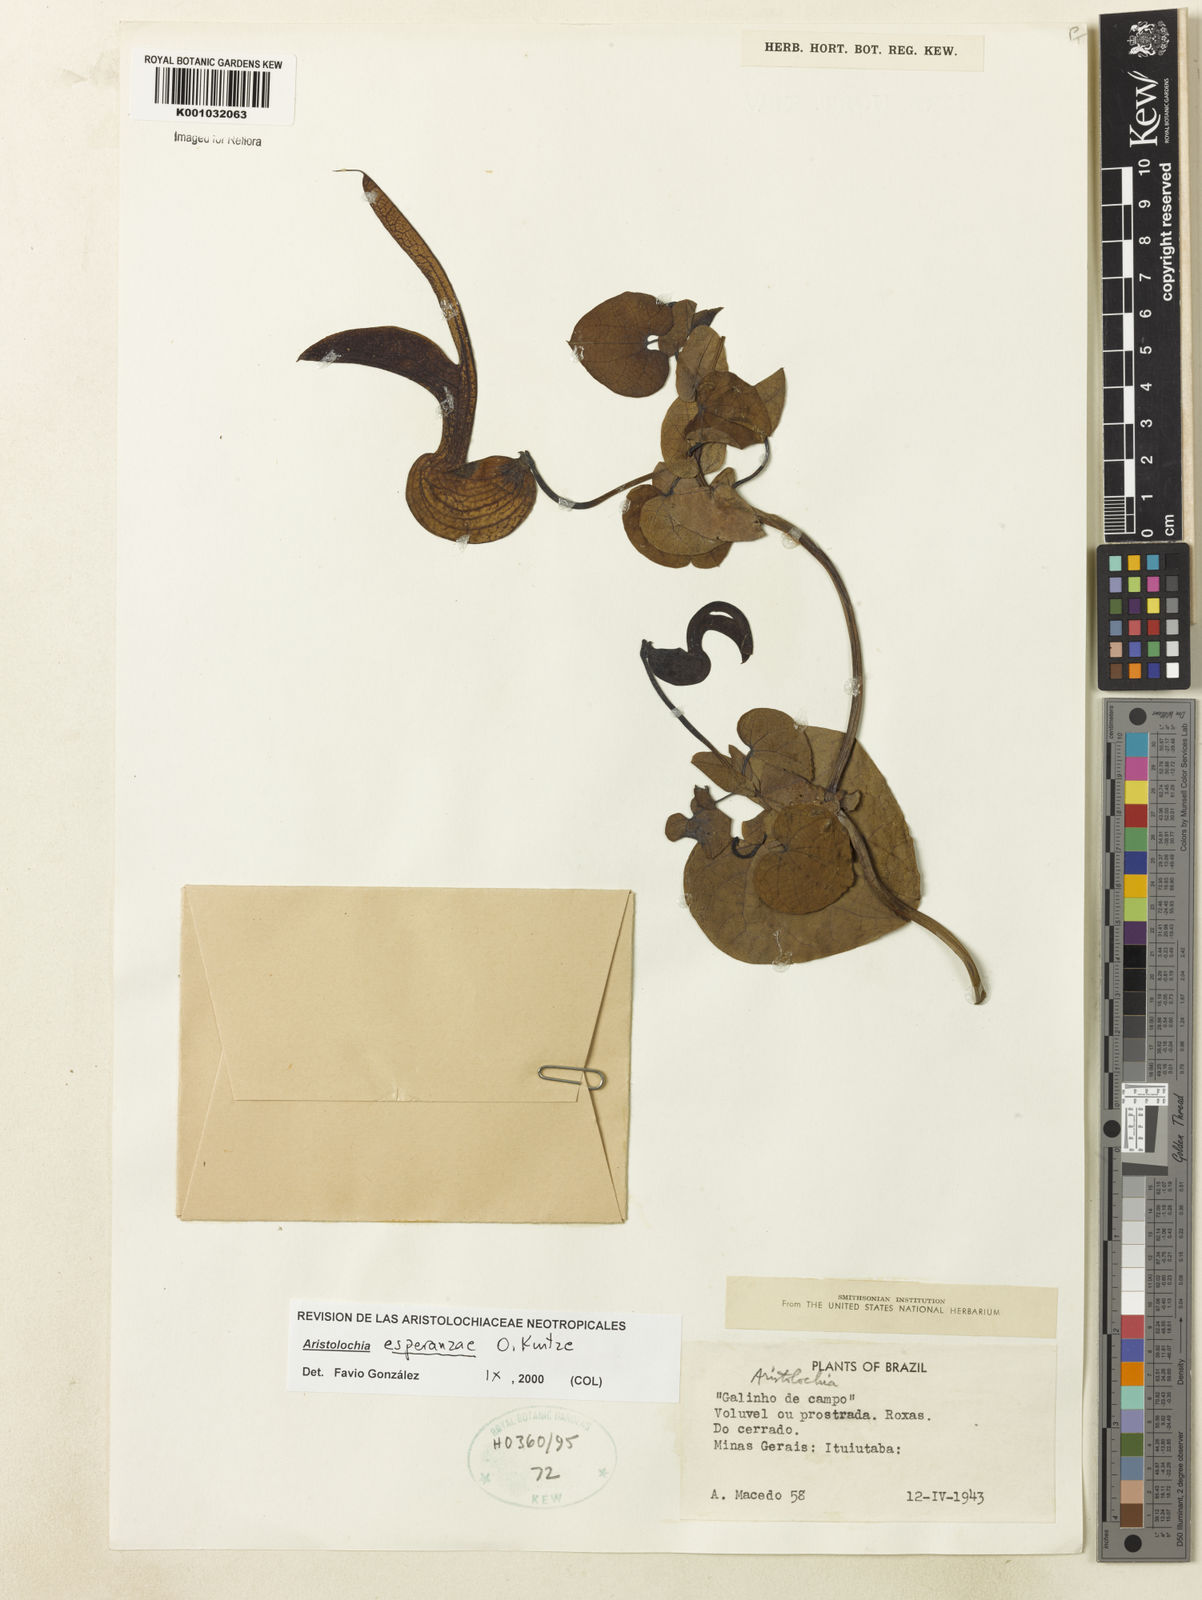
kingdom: Plantae
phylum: Tracheophyta
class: Magnoliopsida
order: Piperales
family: Aristolochiaceae
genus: Aristolochia
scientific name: Aristolochia
